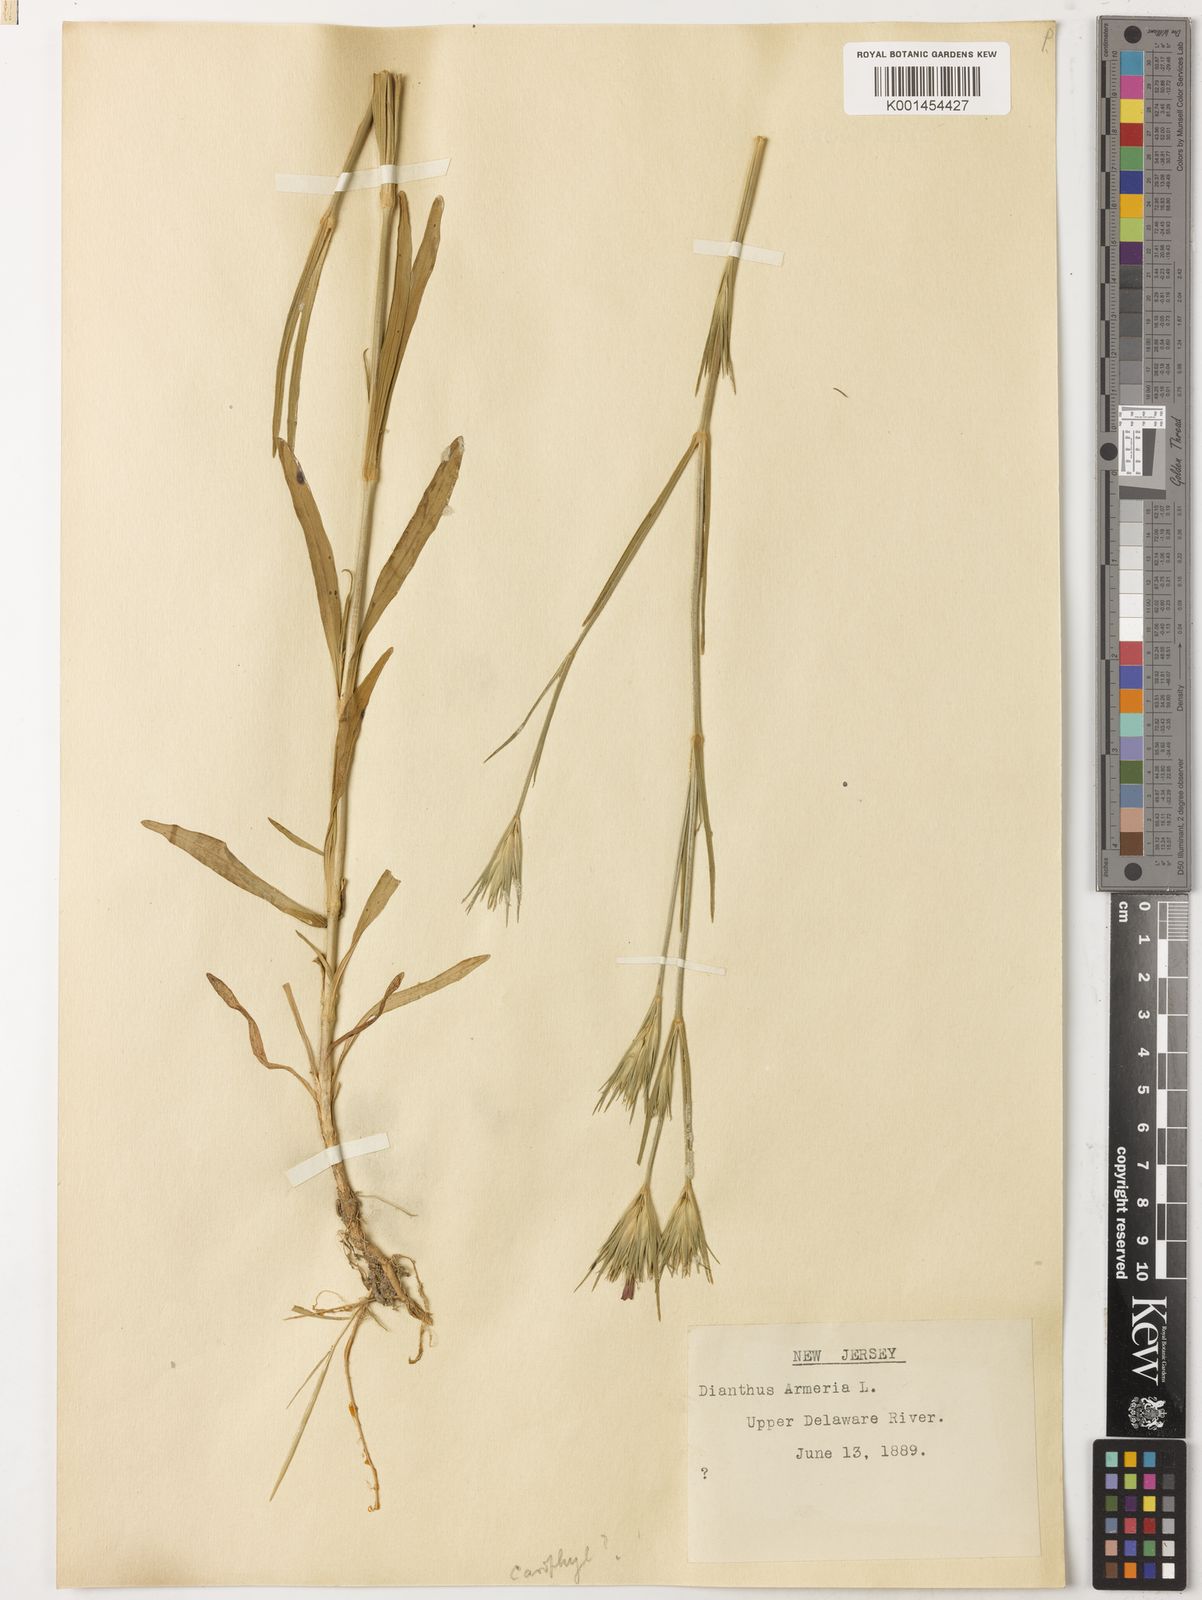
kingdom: Plantae
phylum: Tracheophyta
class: Magnoliopsida
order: Caryophyllales
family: Caryophyllaceae
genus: Dianthus
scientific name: Dianthus armeria
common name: Deptford pink
